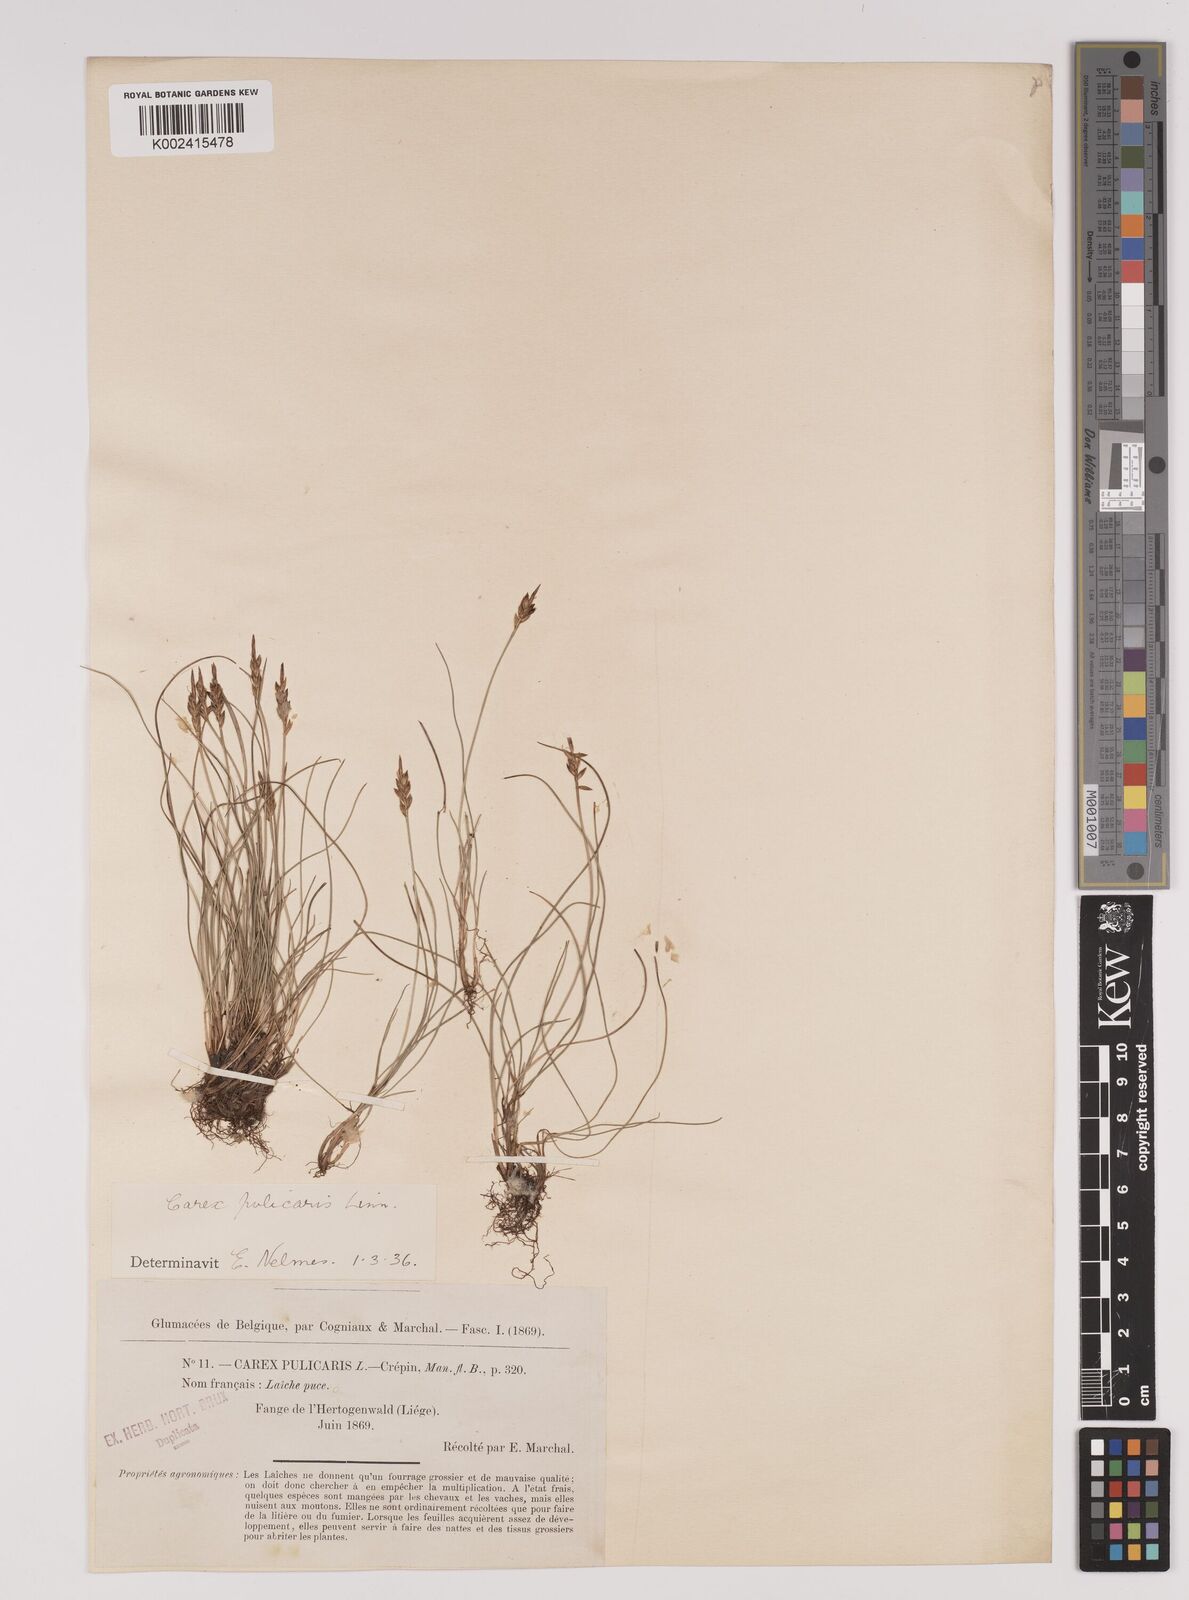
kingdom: Plantae
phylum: Tracheophyta
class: Liliopsida
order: Poales
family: Cyperaceae
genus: Carex
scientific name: Carex pulicaris
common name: Flea sedge
